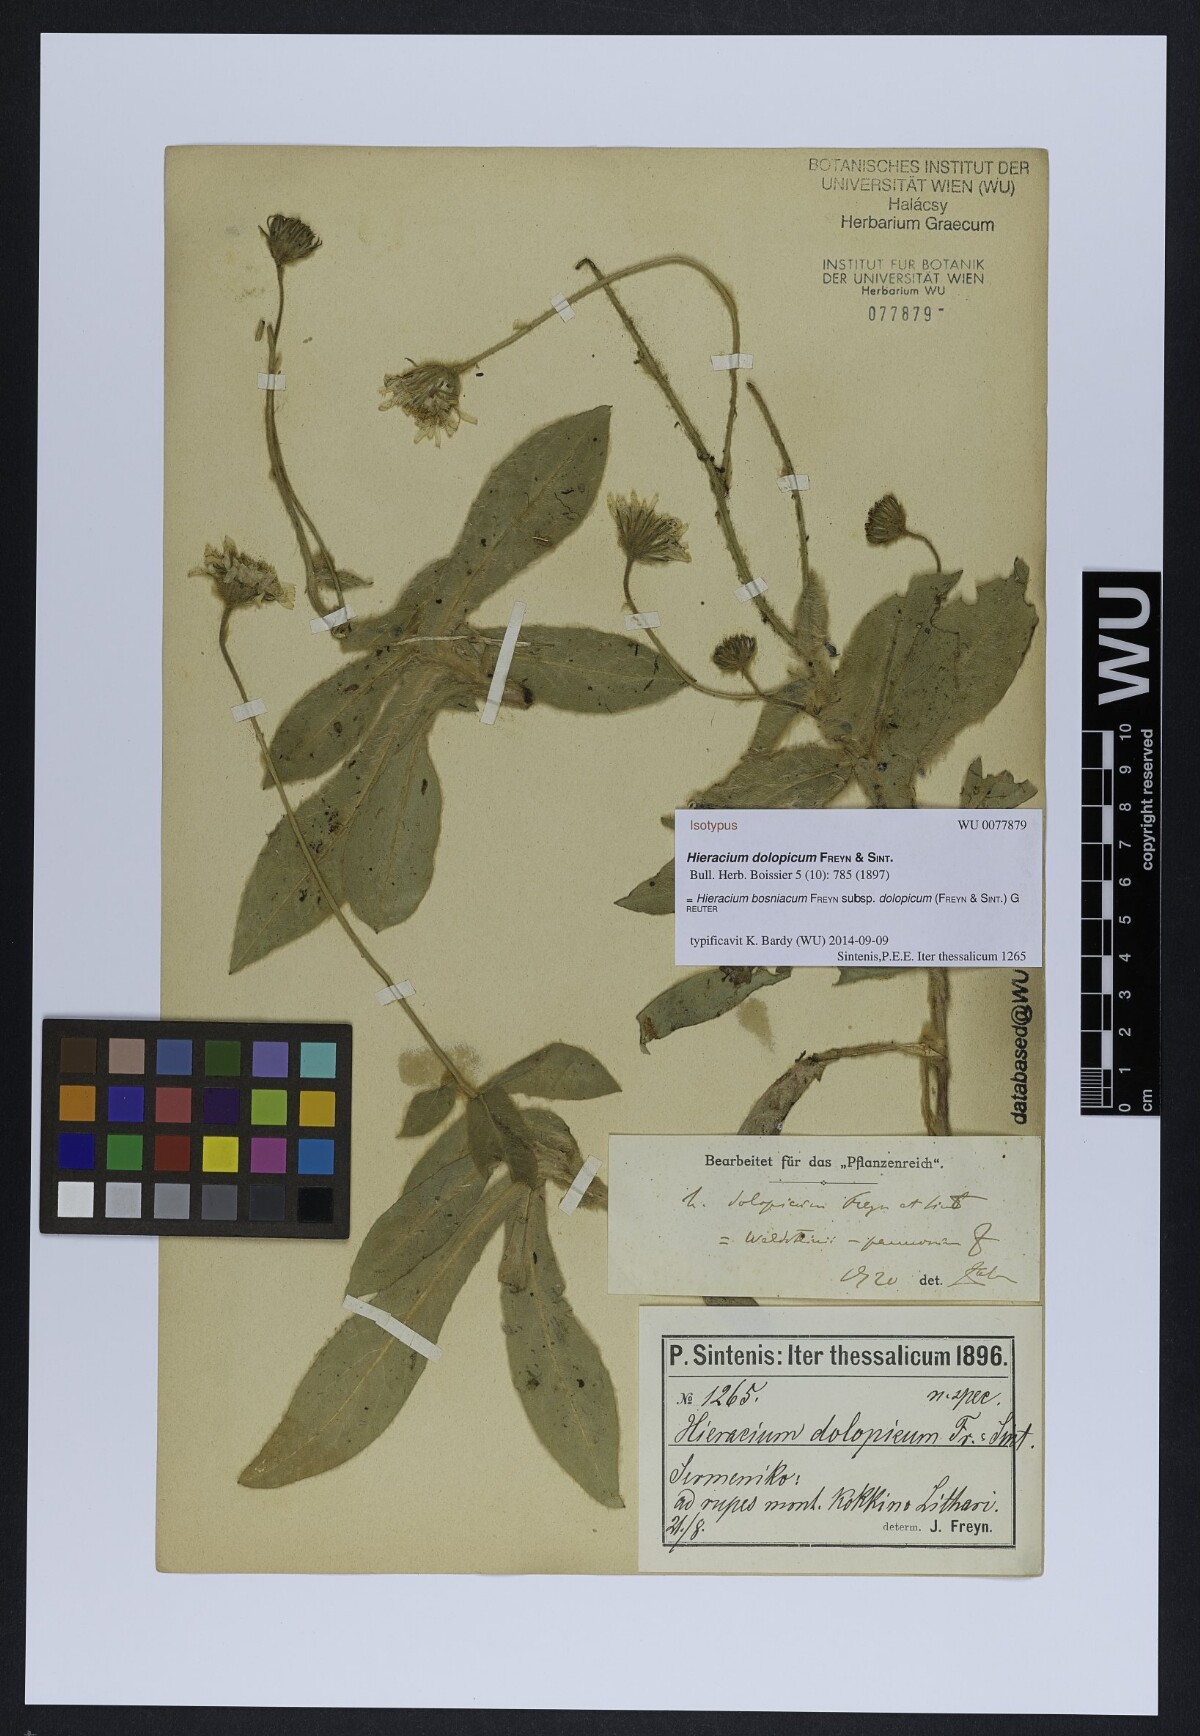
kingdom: Plantae
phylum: Tracheophyta
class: Magnoliopsida
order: Asterales
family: Asteraceae
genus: Hieracium
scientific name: Hieracium bosniacum
